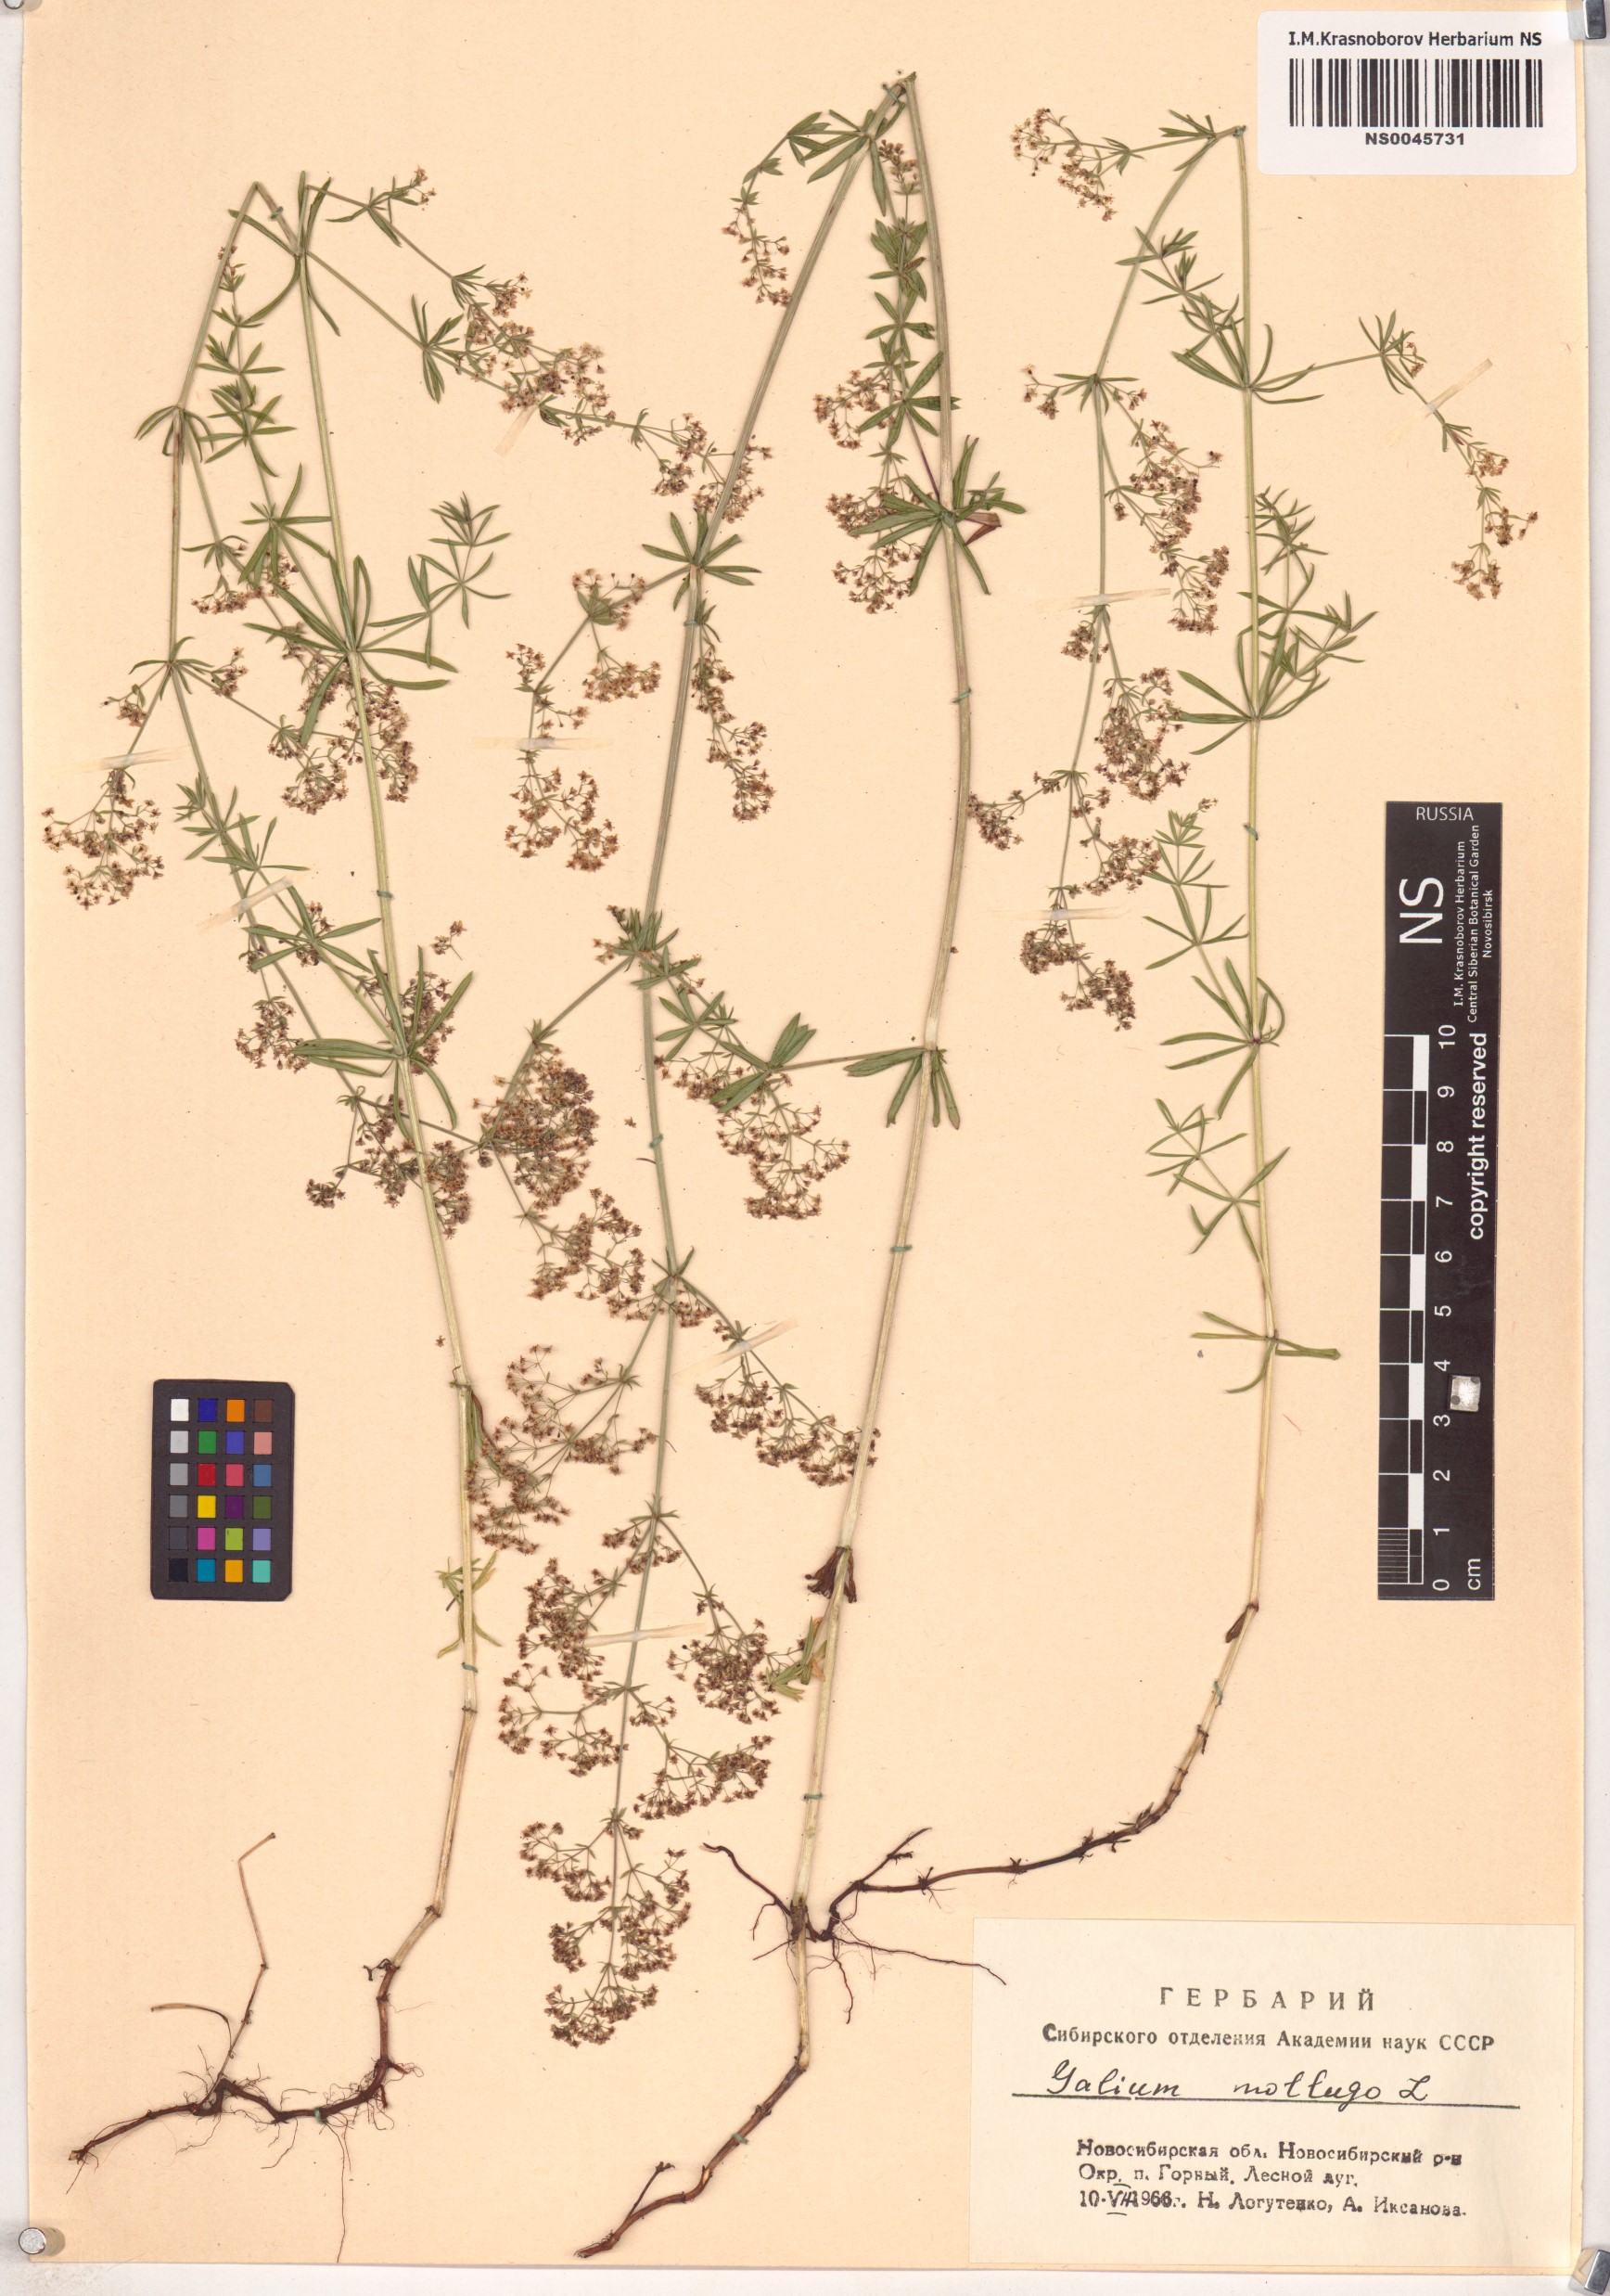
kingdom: Plantae
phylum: Tracheophyta
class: Magnoliopsida
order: Gentianales
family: Rubiaceae
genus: Galium
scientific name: Galium mollugo
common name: Hedge bedstraw
